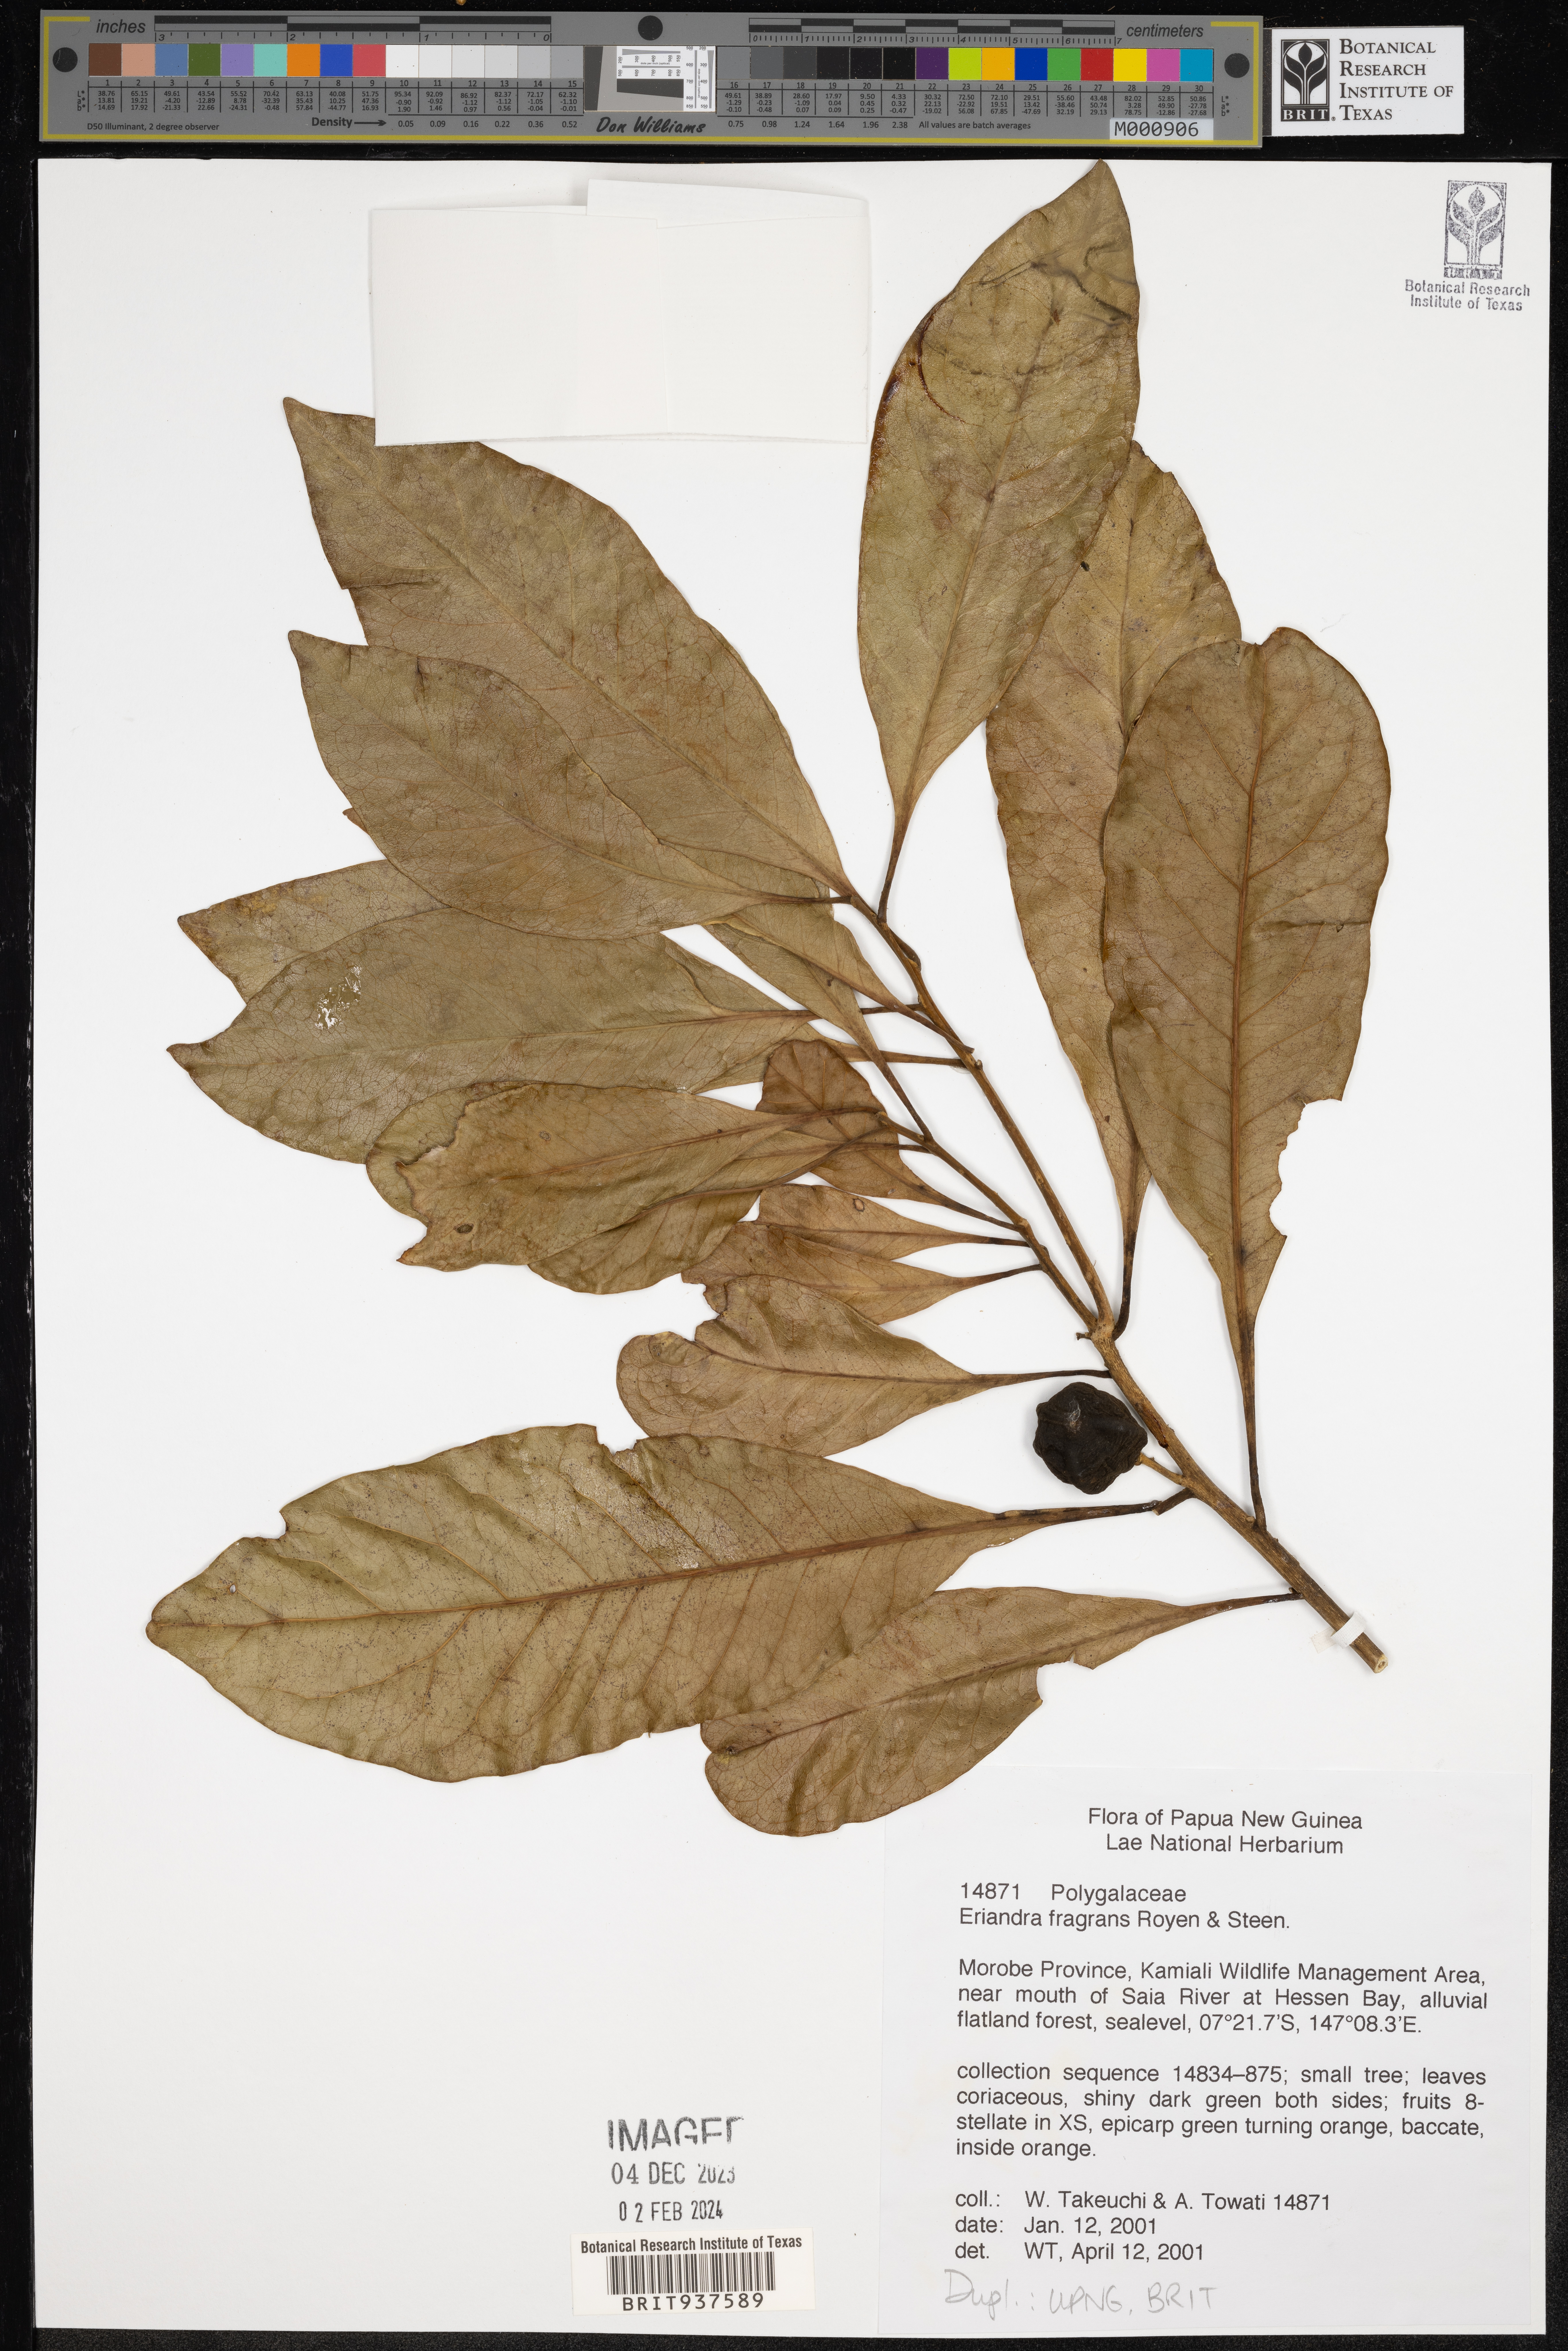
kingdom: Plantae
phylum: Tracheophyta
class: Magnoliopsida
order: Fabales
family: Polygalaceae
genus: Eriandra
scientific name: Eriandra
